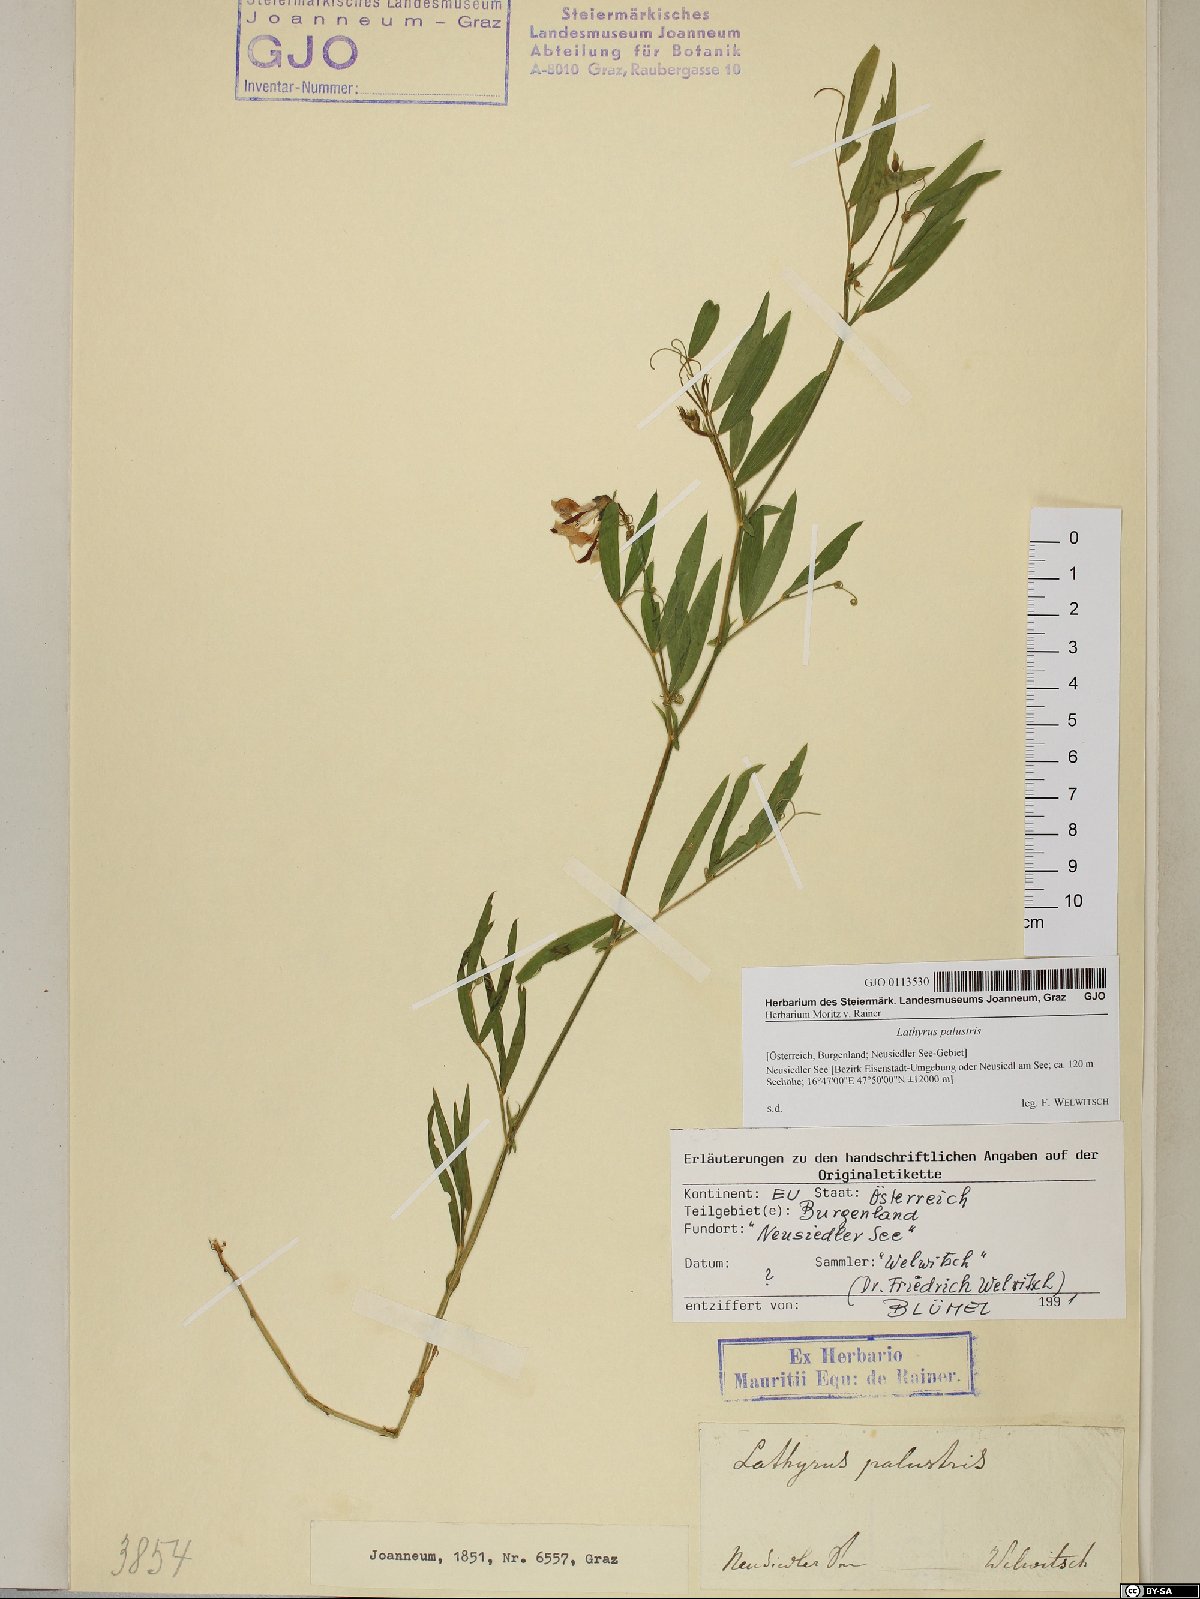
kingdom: Plantae
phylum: Tracheophyta
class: Magnoliopsida
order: Fabales
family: Fabaceae
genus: Lathyrus
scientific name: Lathyrus palustris
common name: Marsh pea
